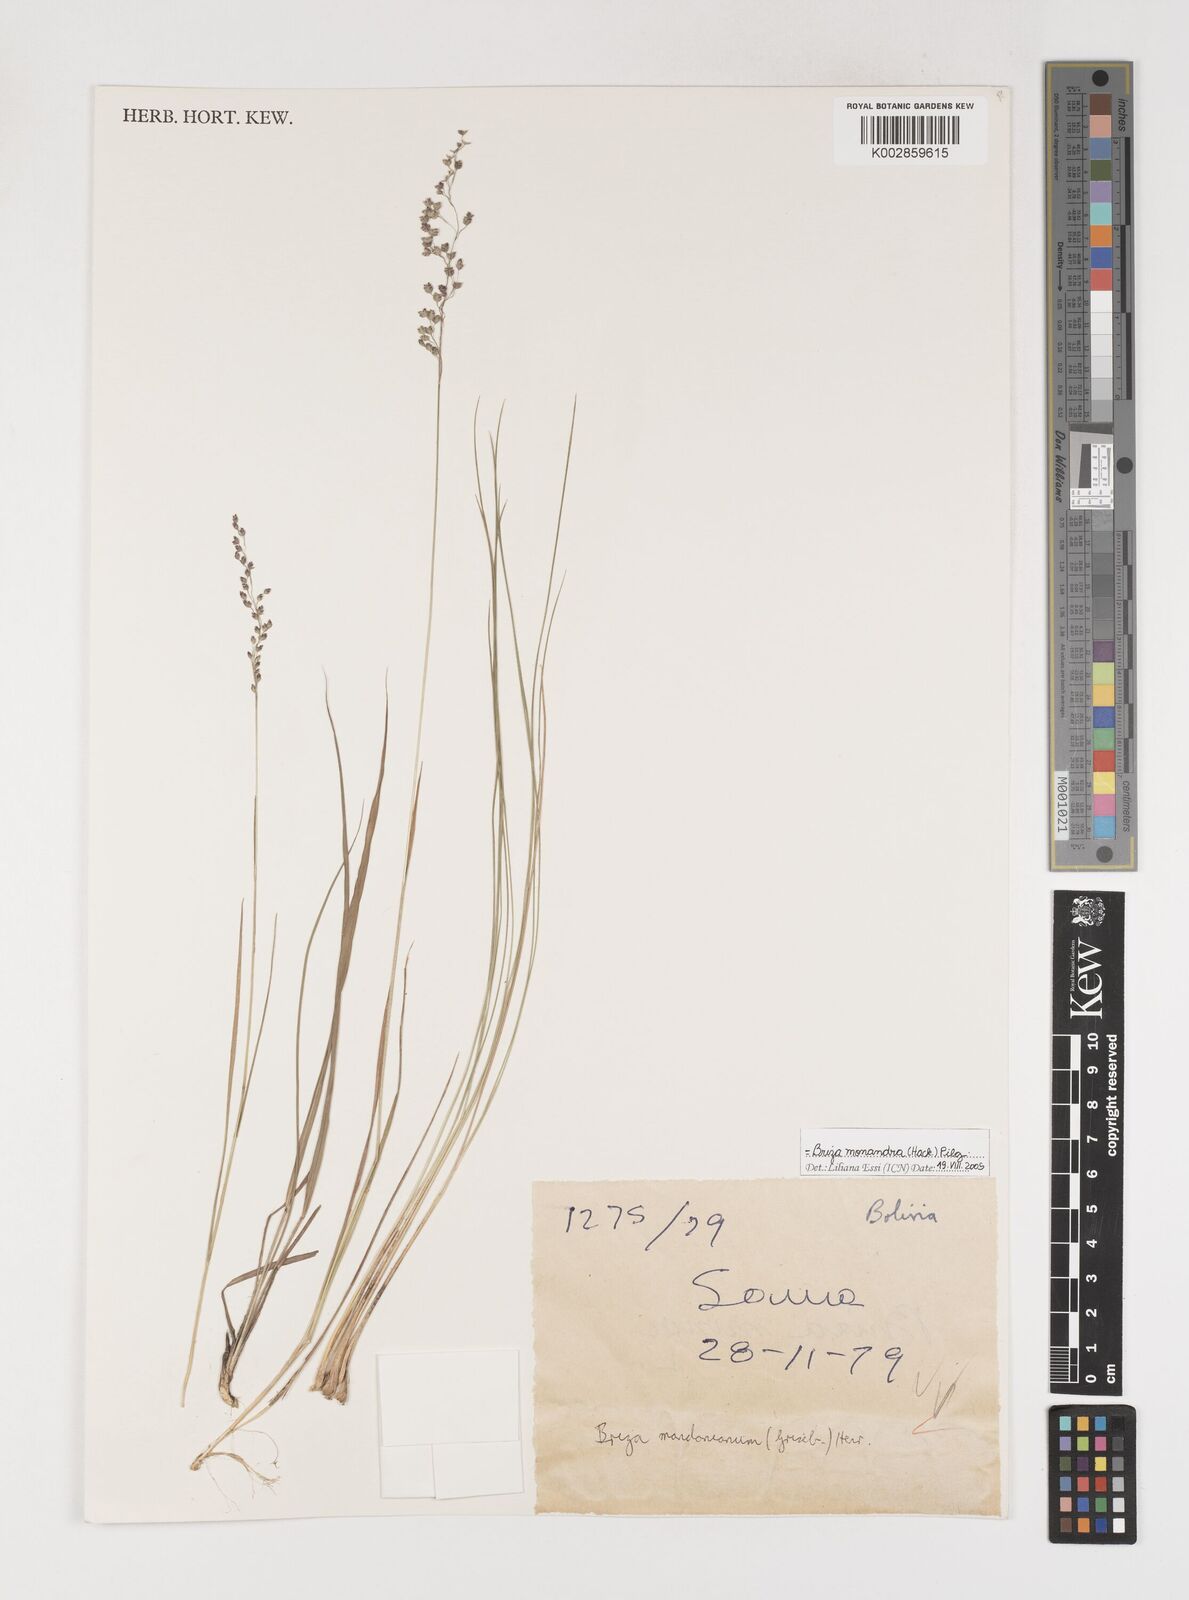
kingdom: Plantae
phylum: Tracheophyta
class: Liliopsida
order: Poales
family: Poaceae
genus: Poidium
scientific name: Poidium monandrum
